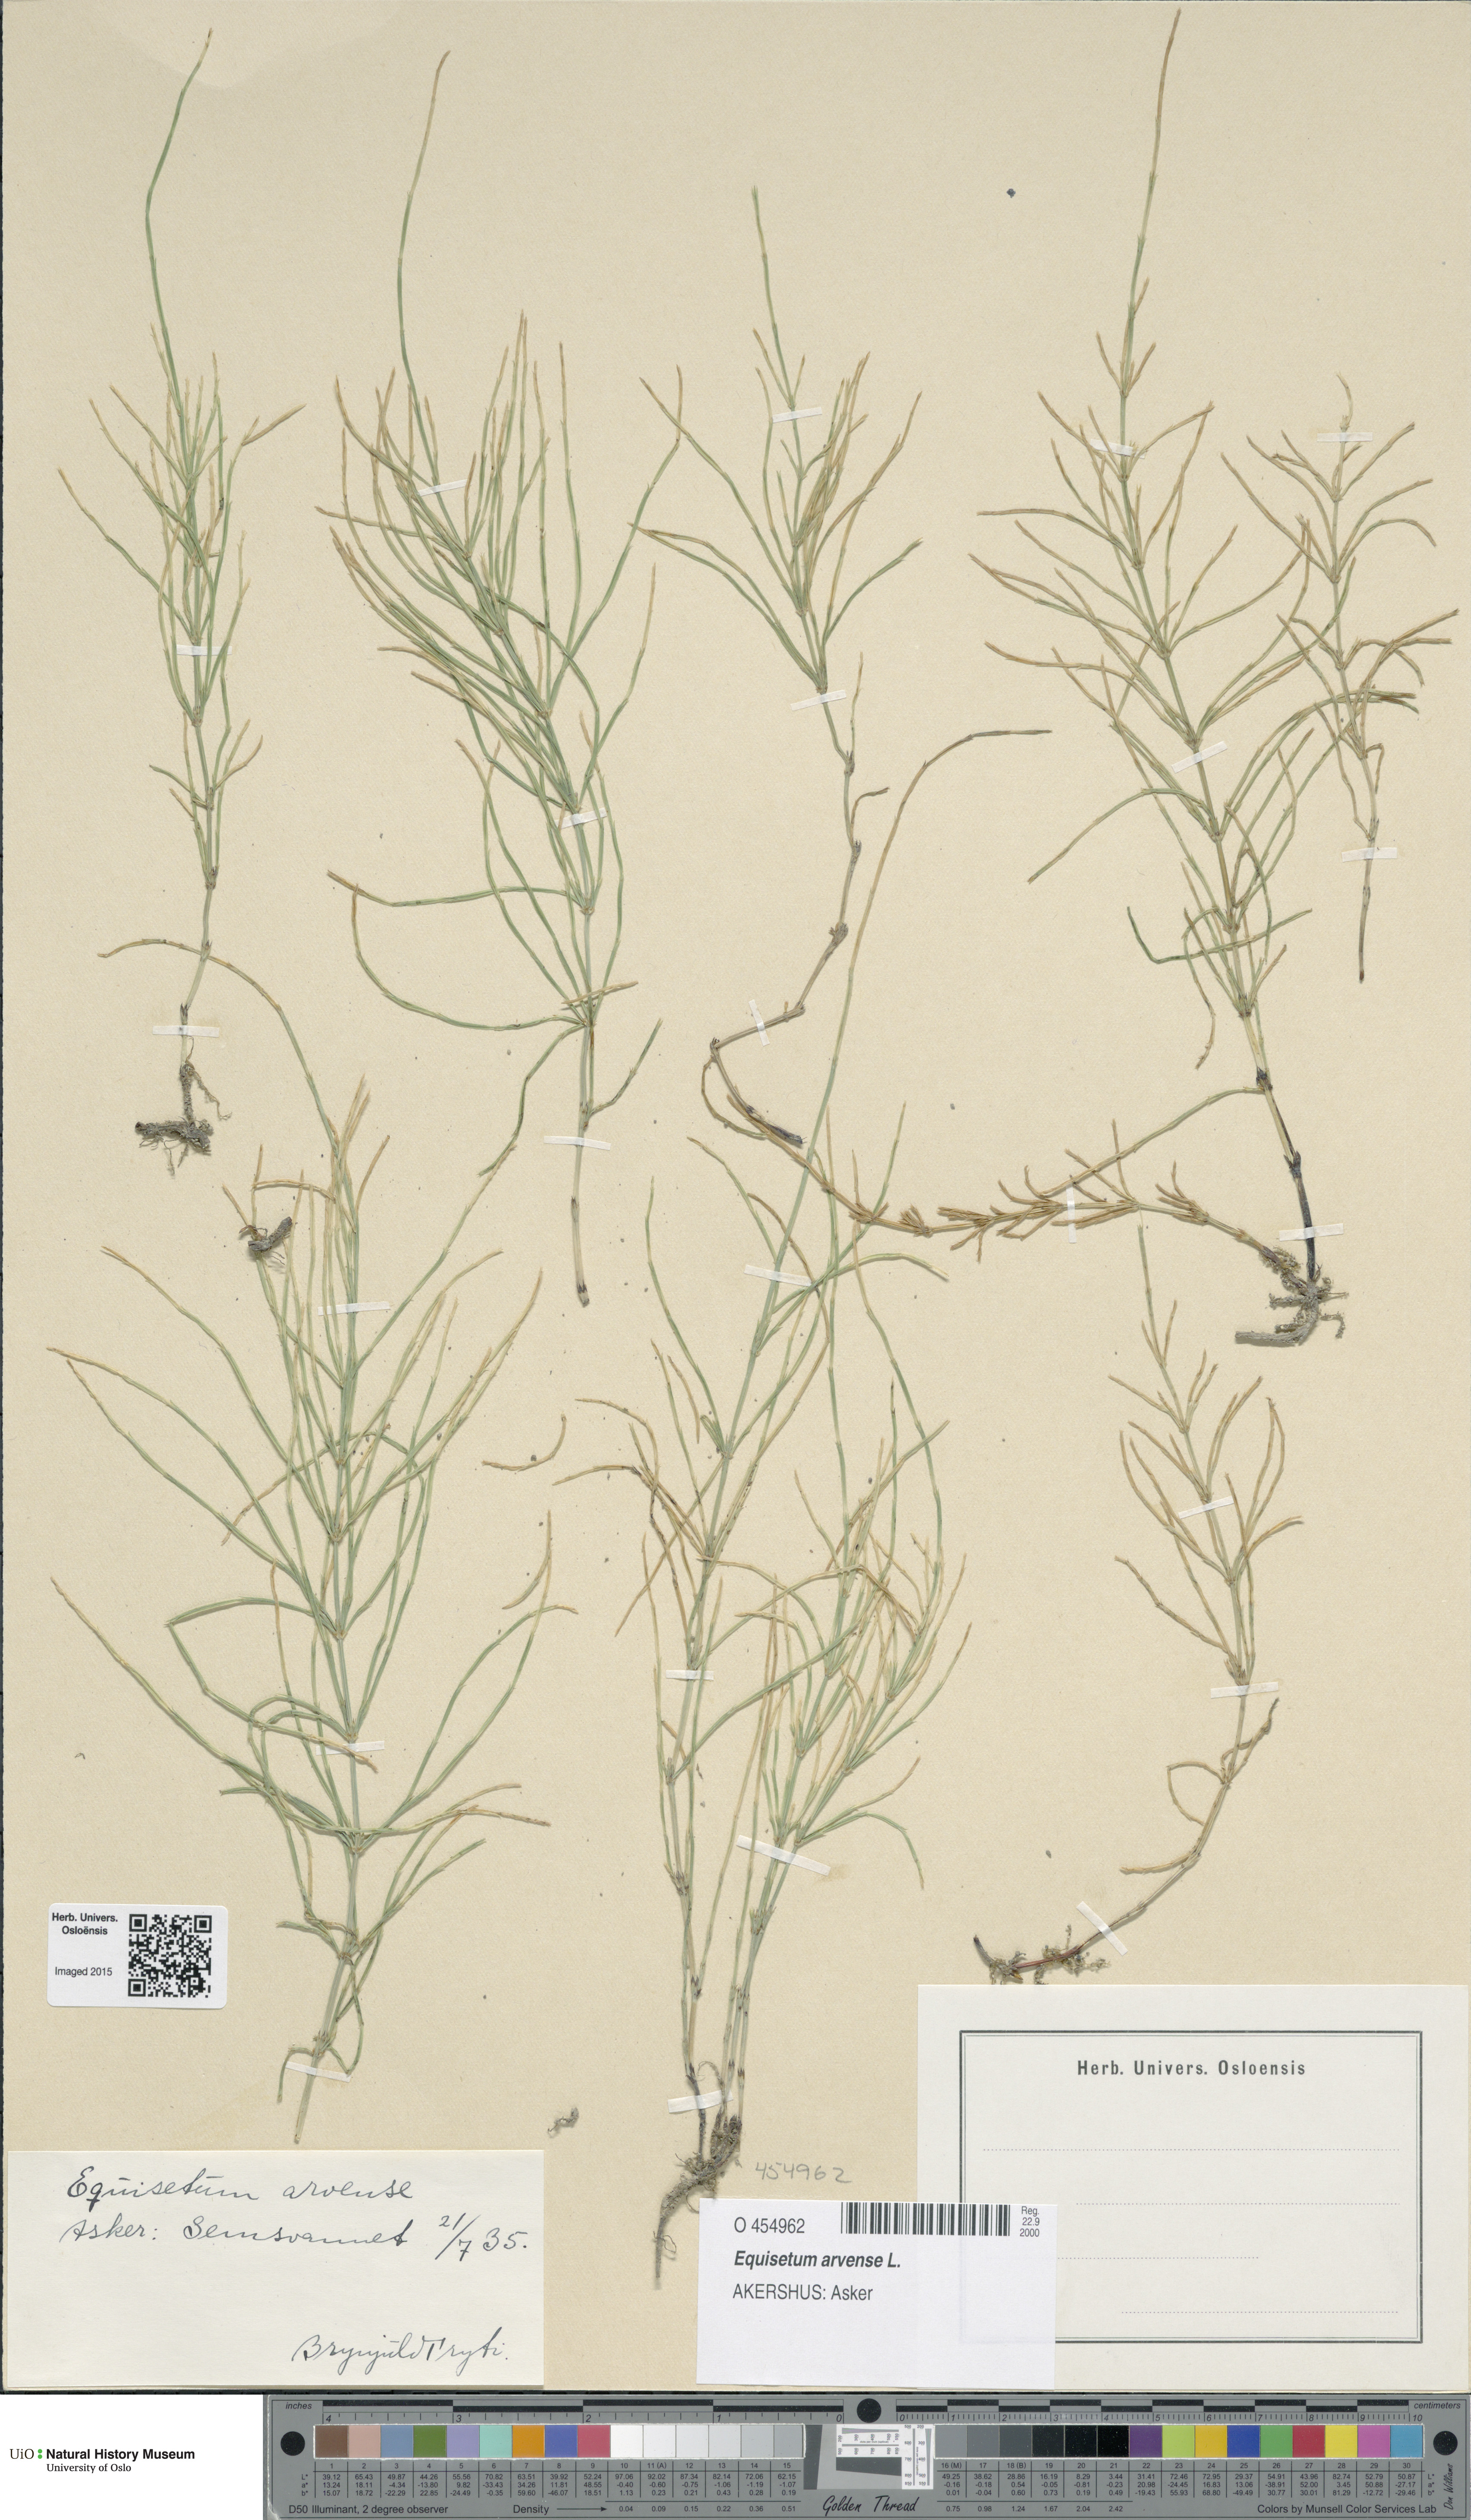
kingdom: Plantae
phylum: Tracheophyta
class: Polypodiopsida
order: Equisetales
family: Equisetaceae
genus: Equisetum
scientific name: Equisetum arvense
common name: Field horsetail
